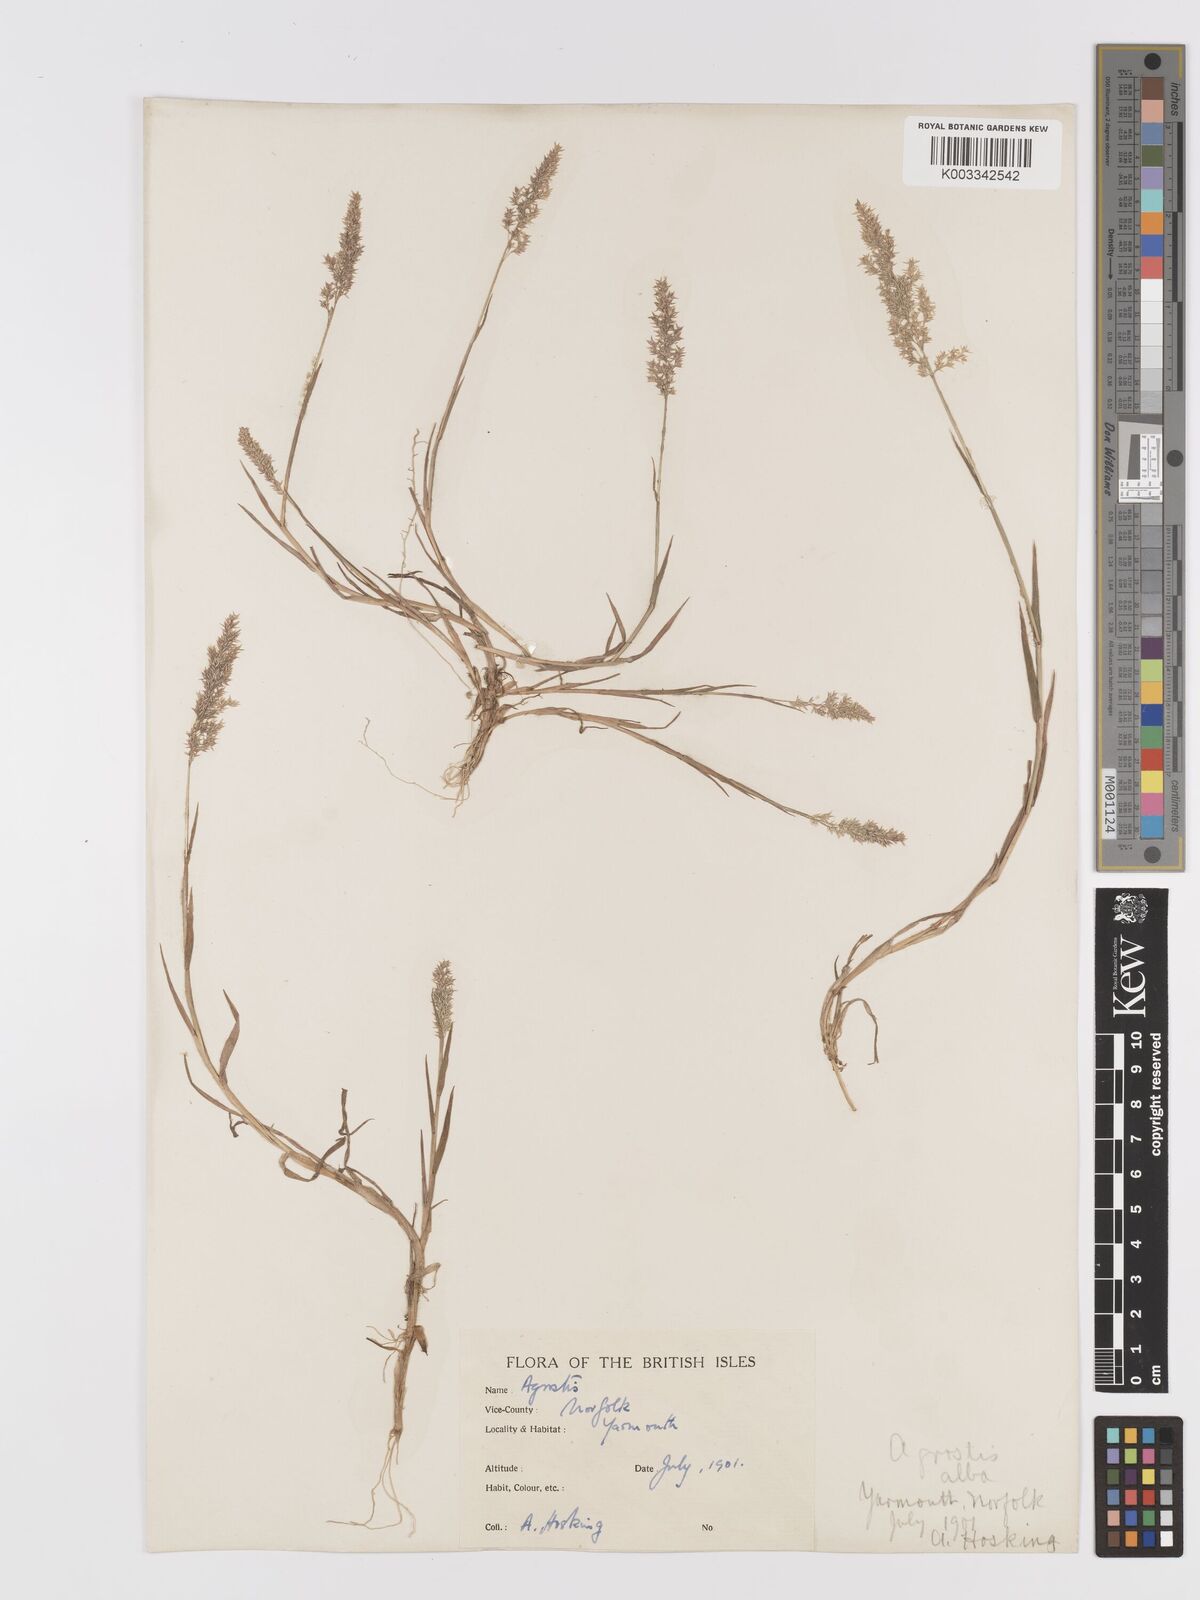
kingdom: Plantae
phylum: Tracheophyta
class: Liliopsida
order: Poales
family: Poaceae
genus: Agrostis
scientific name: Agrostis
